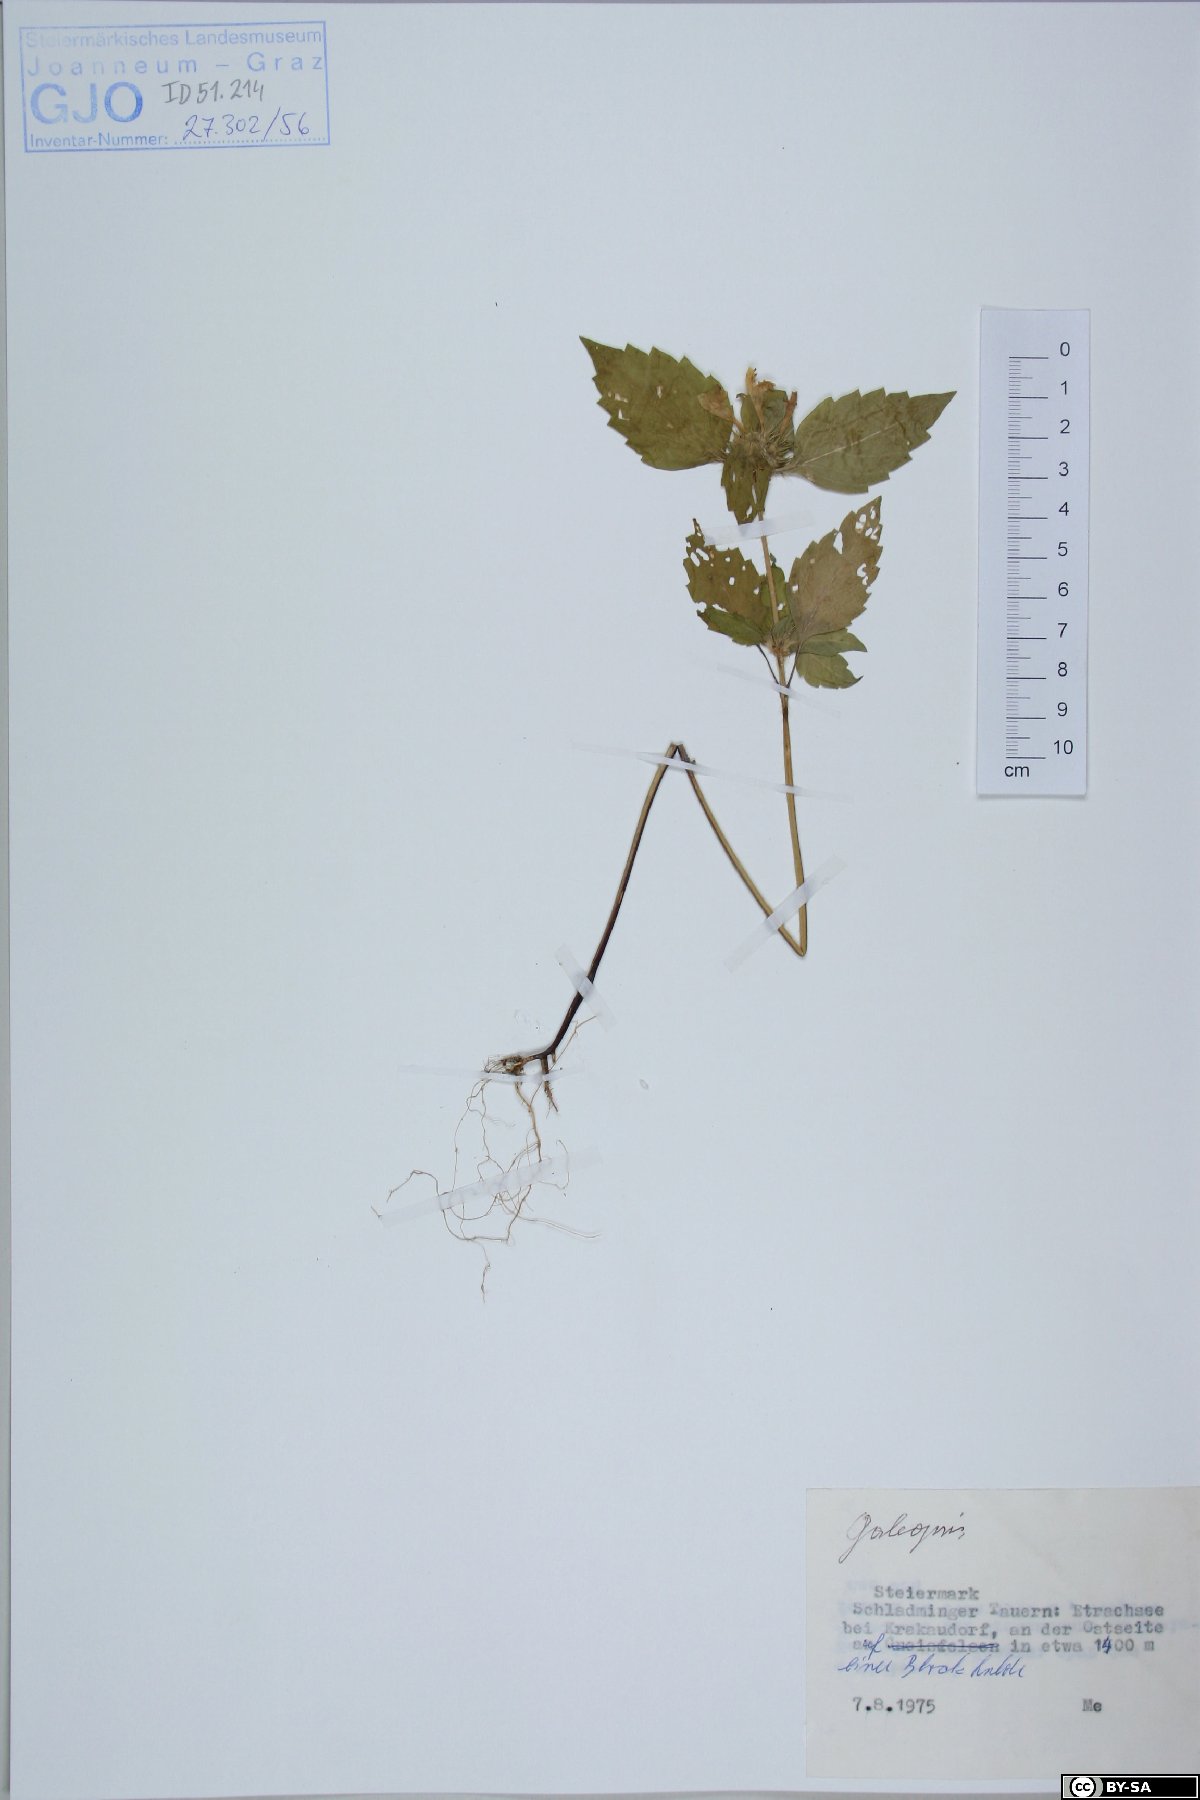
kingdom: Plantae
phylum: Tracheophyta
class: Magnoliopsida
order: Lamiales
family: Lamiaceae
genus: Galeopsis
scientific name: Galeopsis
